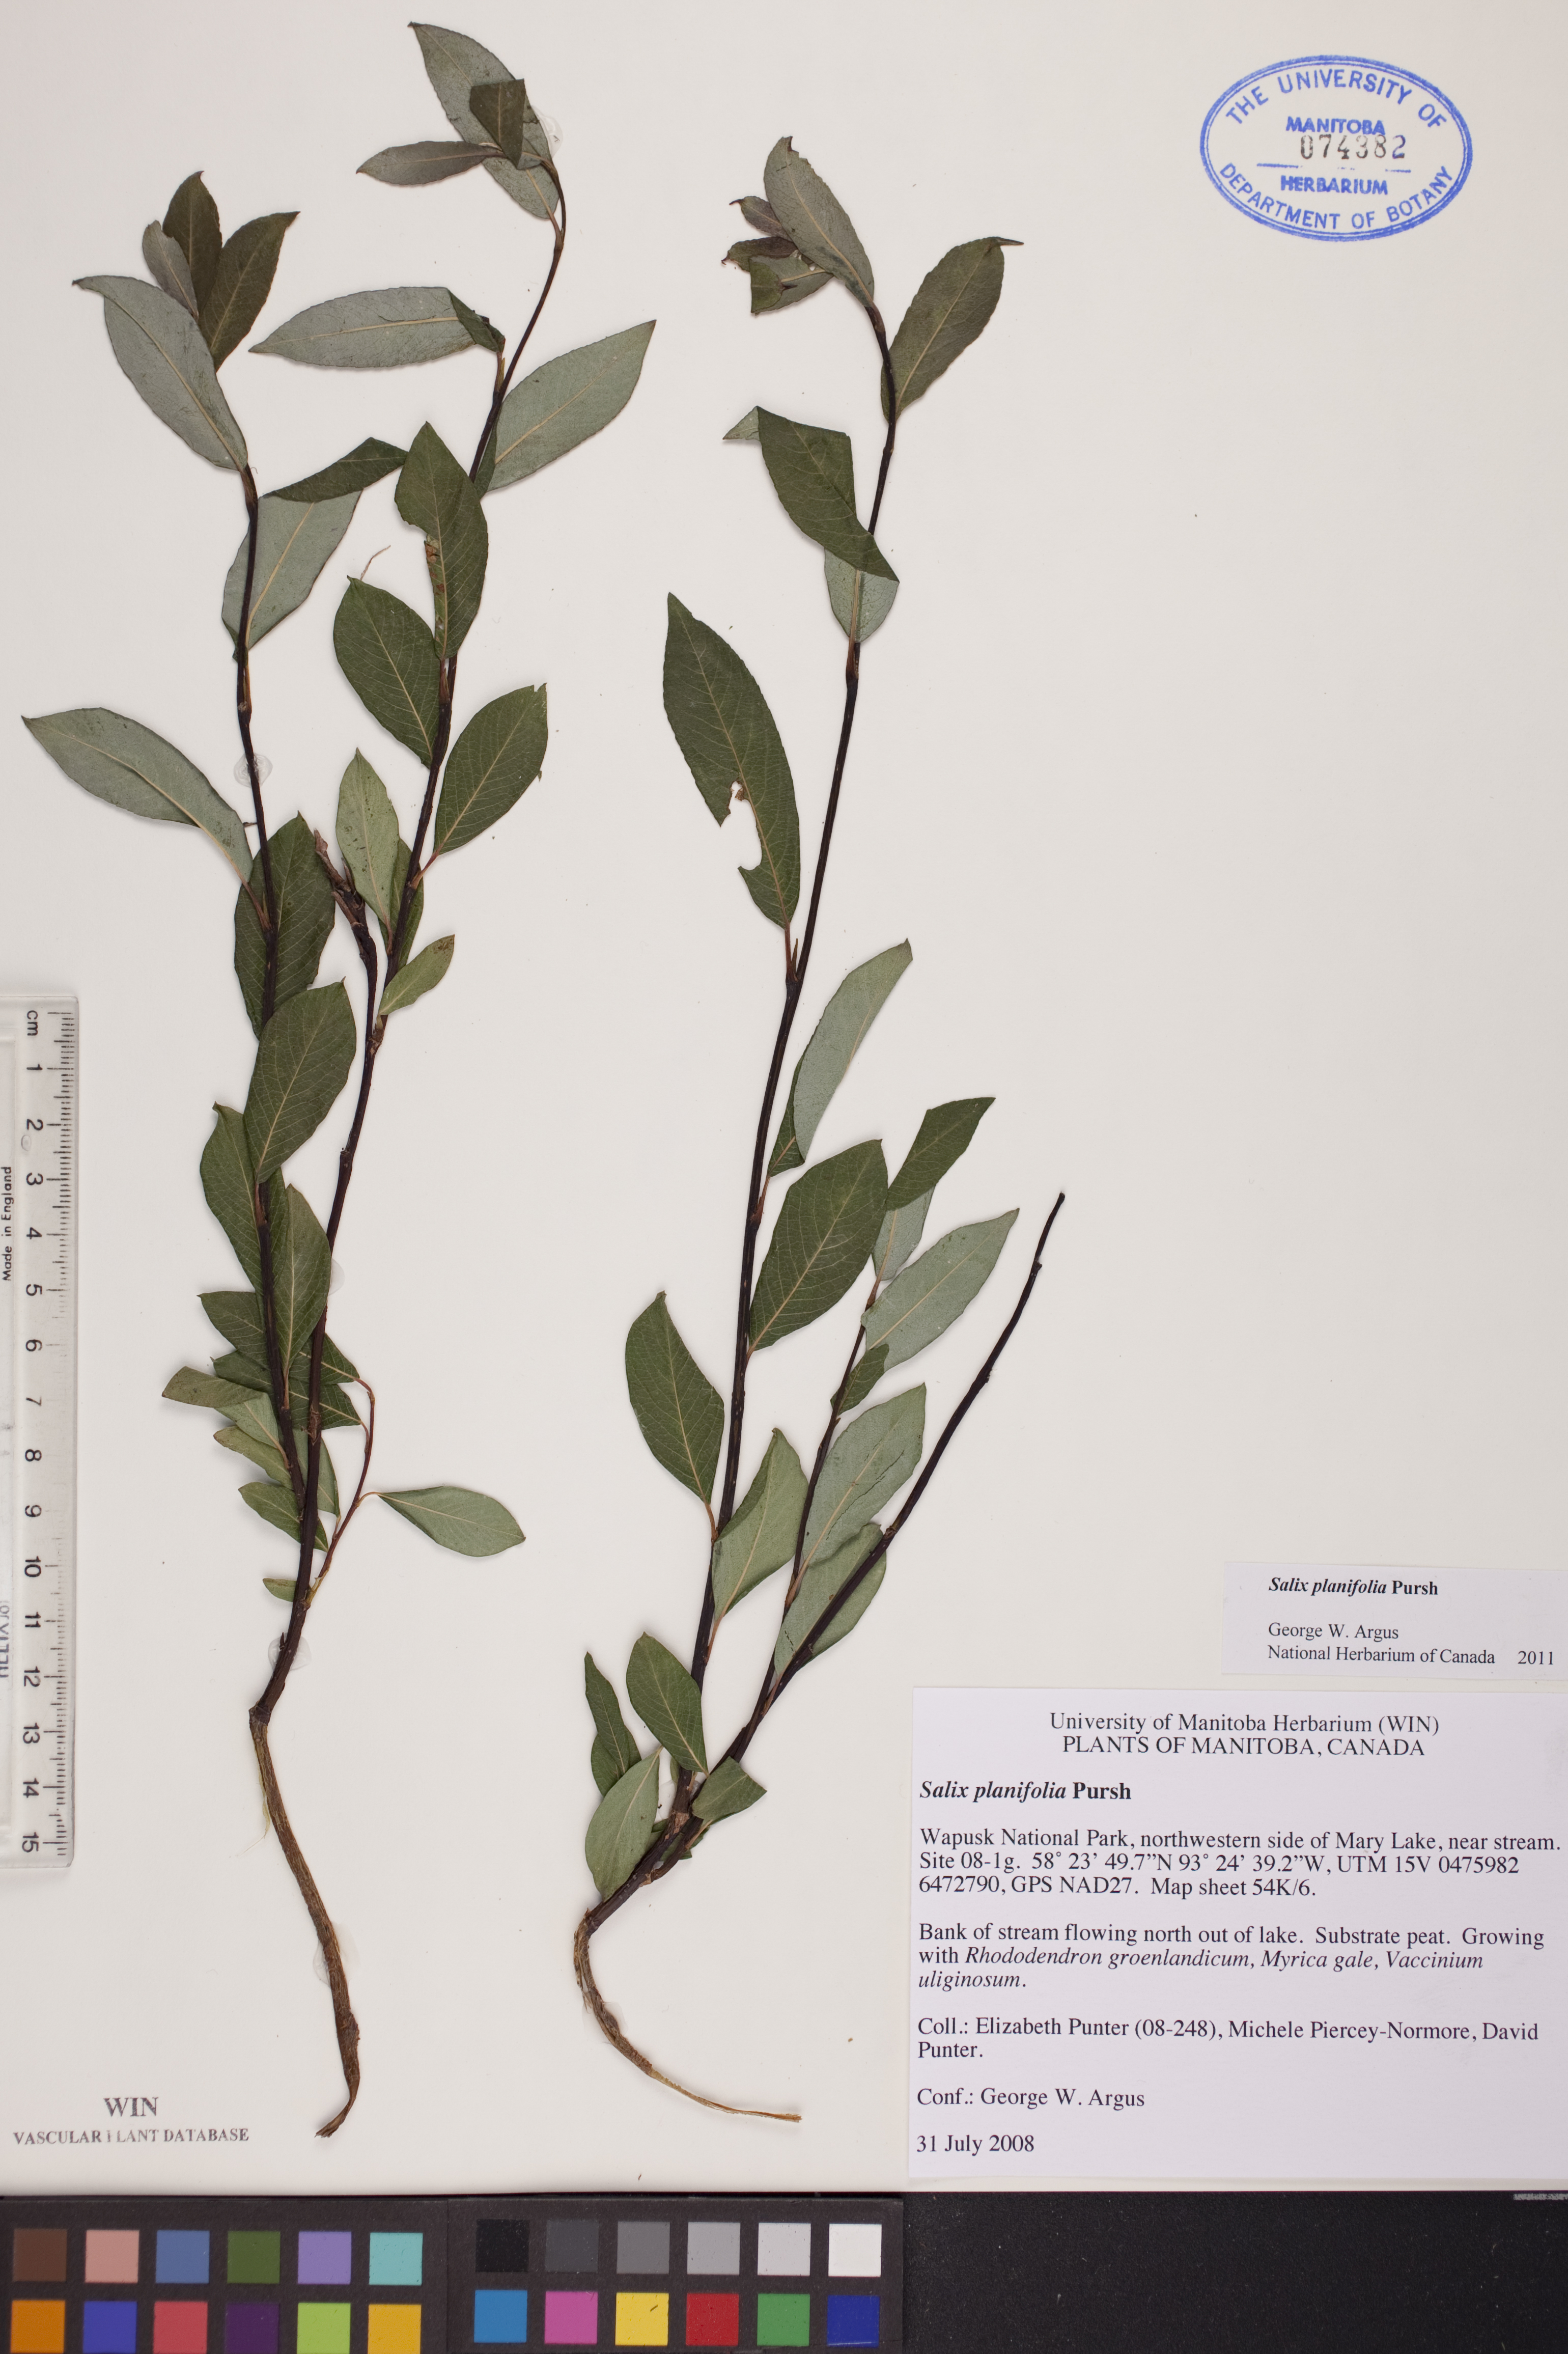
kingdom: Plantae
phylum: Tracheophyta
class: Magnoliopsida
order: Malpighiales
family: Salicaceae
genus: Salix
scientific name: Salix planifolia
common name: Mountain willow
